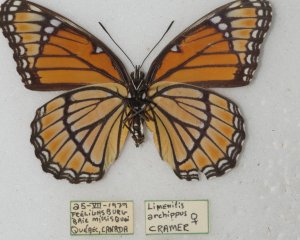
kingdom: Animalia
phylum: Arthropoda
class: Insecta
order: Lepidoptera
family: Nymphalidae
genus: Limenitis
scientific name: Limenitis archippus
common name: Viceroy
